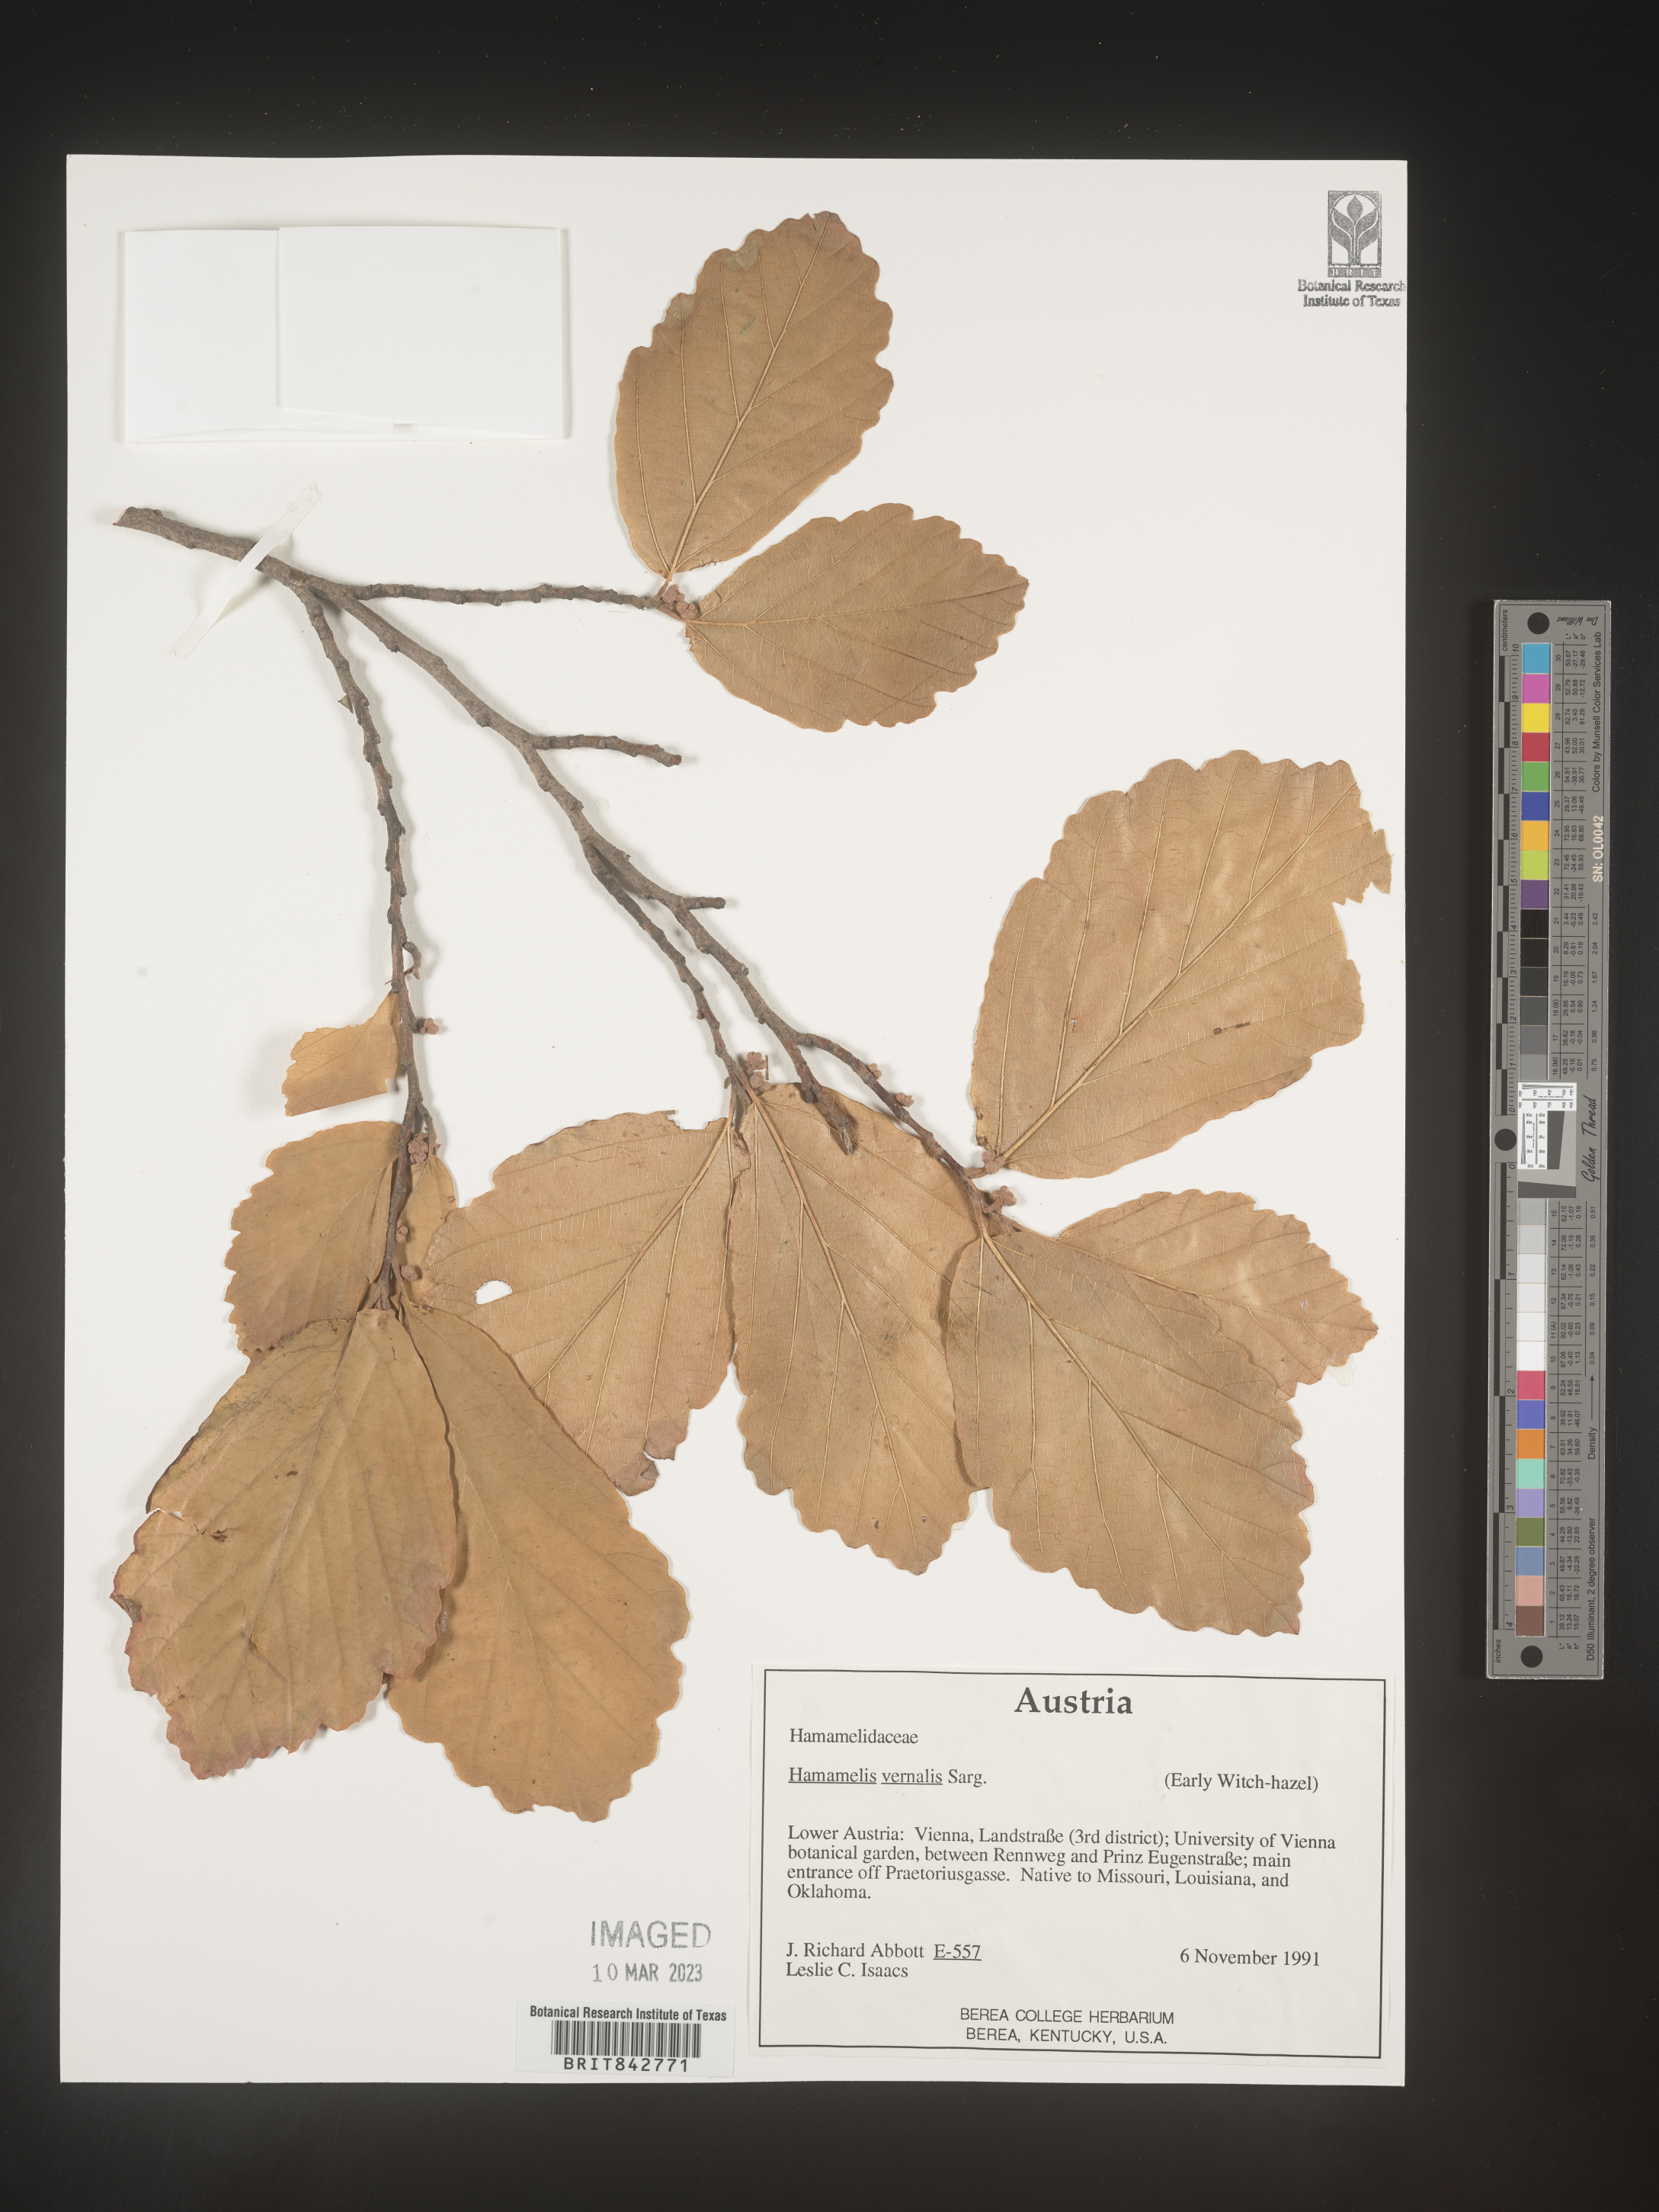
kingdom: Plantae
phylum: Tracheophyta
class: Magnoliopsida
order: Saxifragales
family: Hamamelidaceae
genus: Hamamelis
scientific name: Hamamelis
